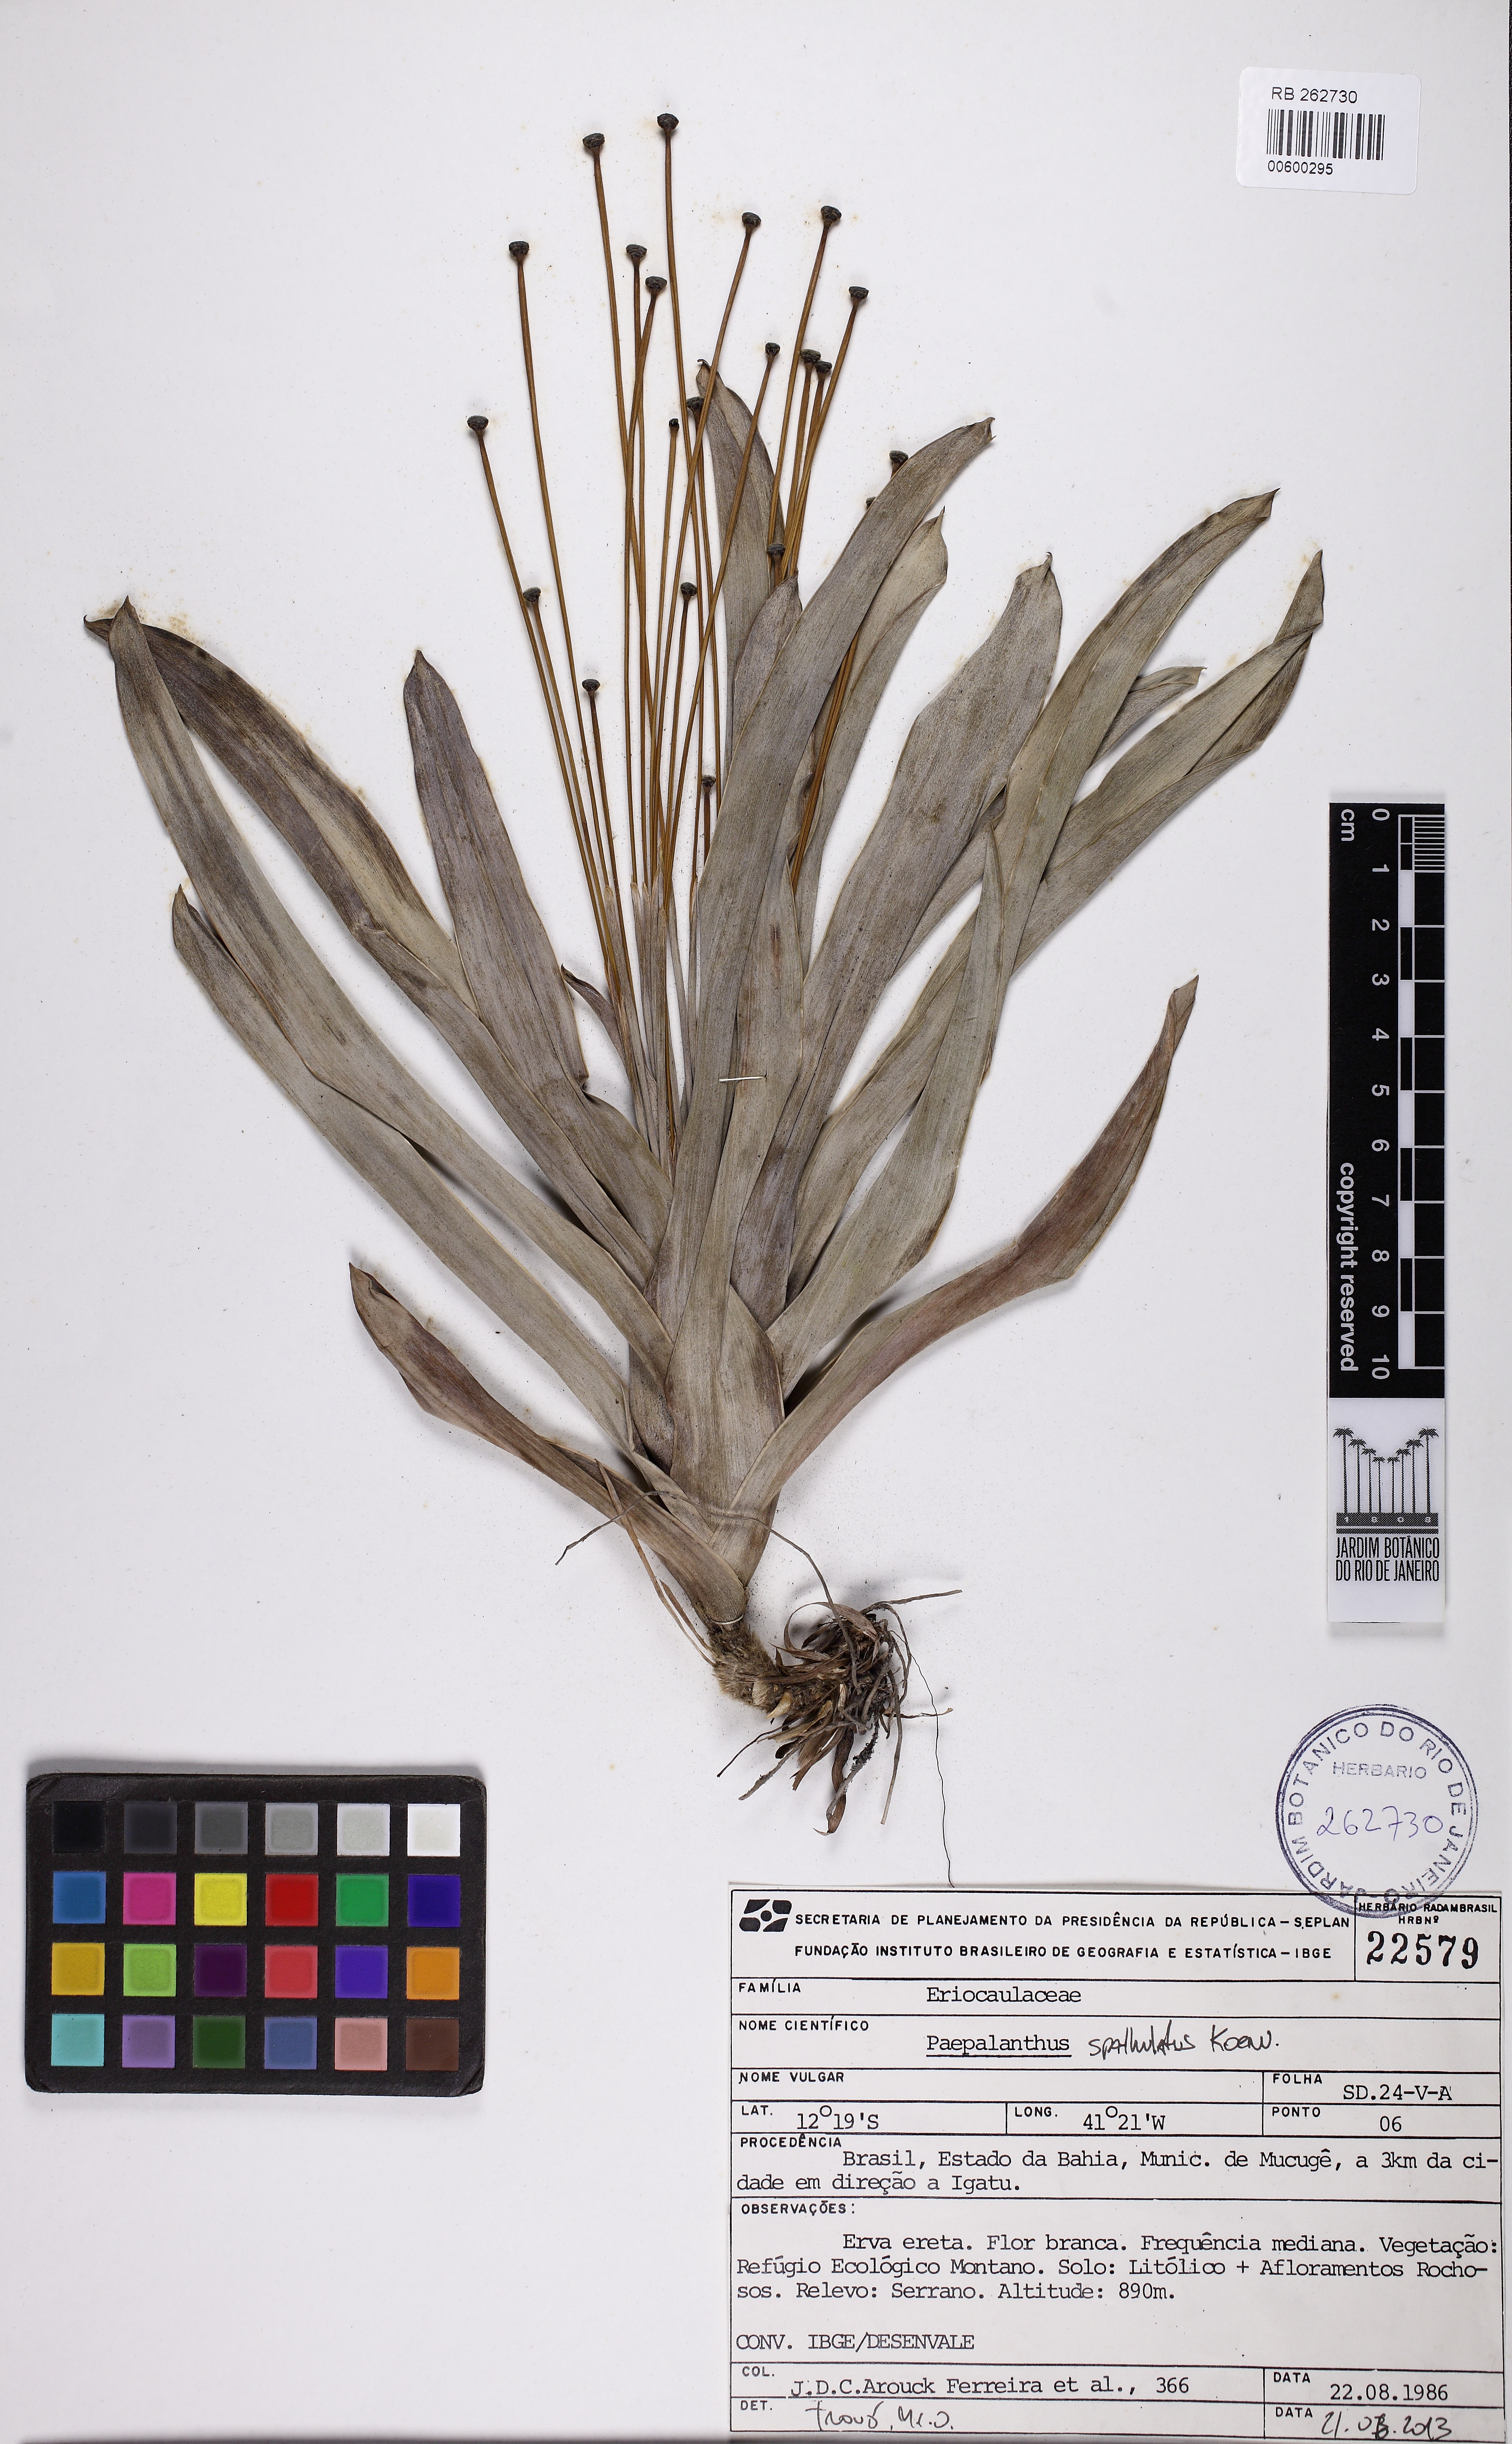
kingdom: Plantae
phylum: Tracheophyta
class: Liliopsida
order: Poales
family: Eriocaulaceae
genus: Paepalanthus
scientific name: Paepalanthus spathulatus
